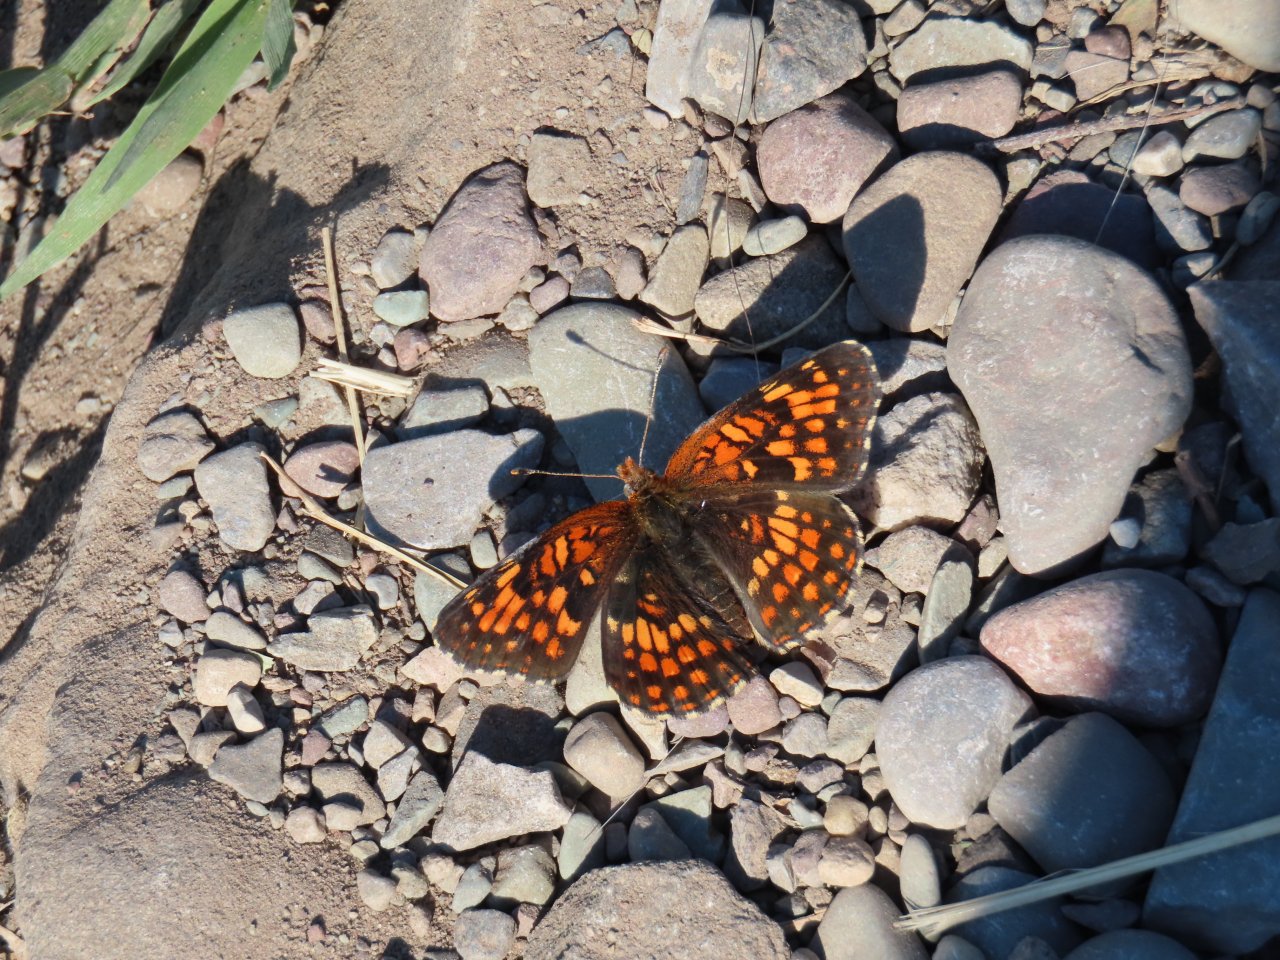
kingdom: Animalia
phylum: Arthropoda
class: Insecta
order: Lepidoptera
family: Nymphalidae
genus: Chlosyne
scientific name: Chlosyne palla
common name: Northern Checkerspot
